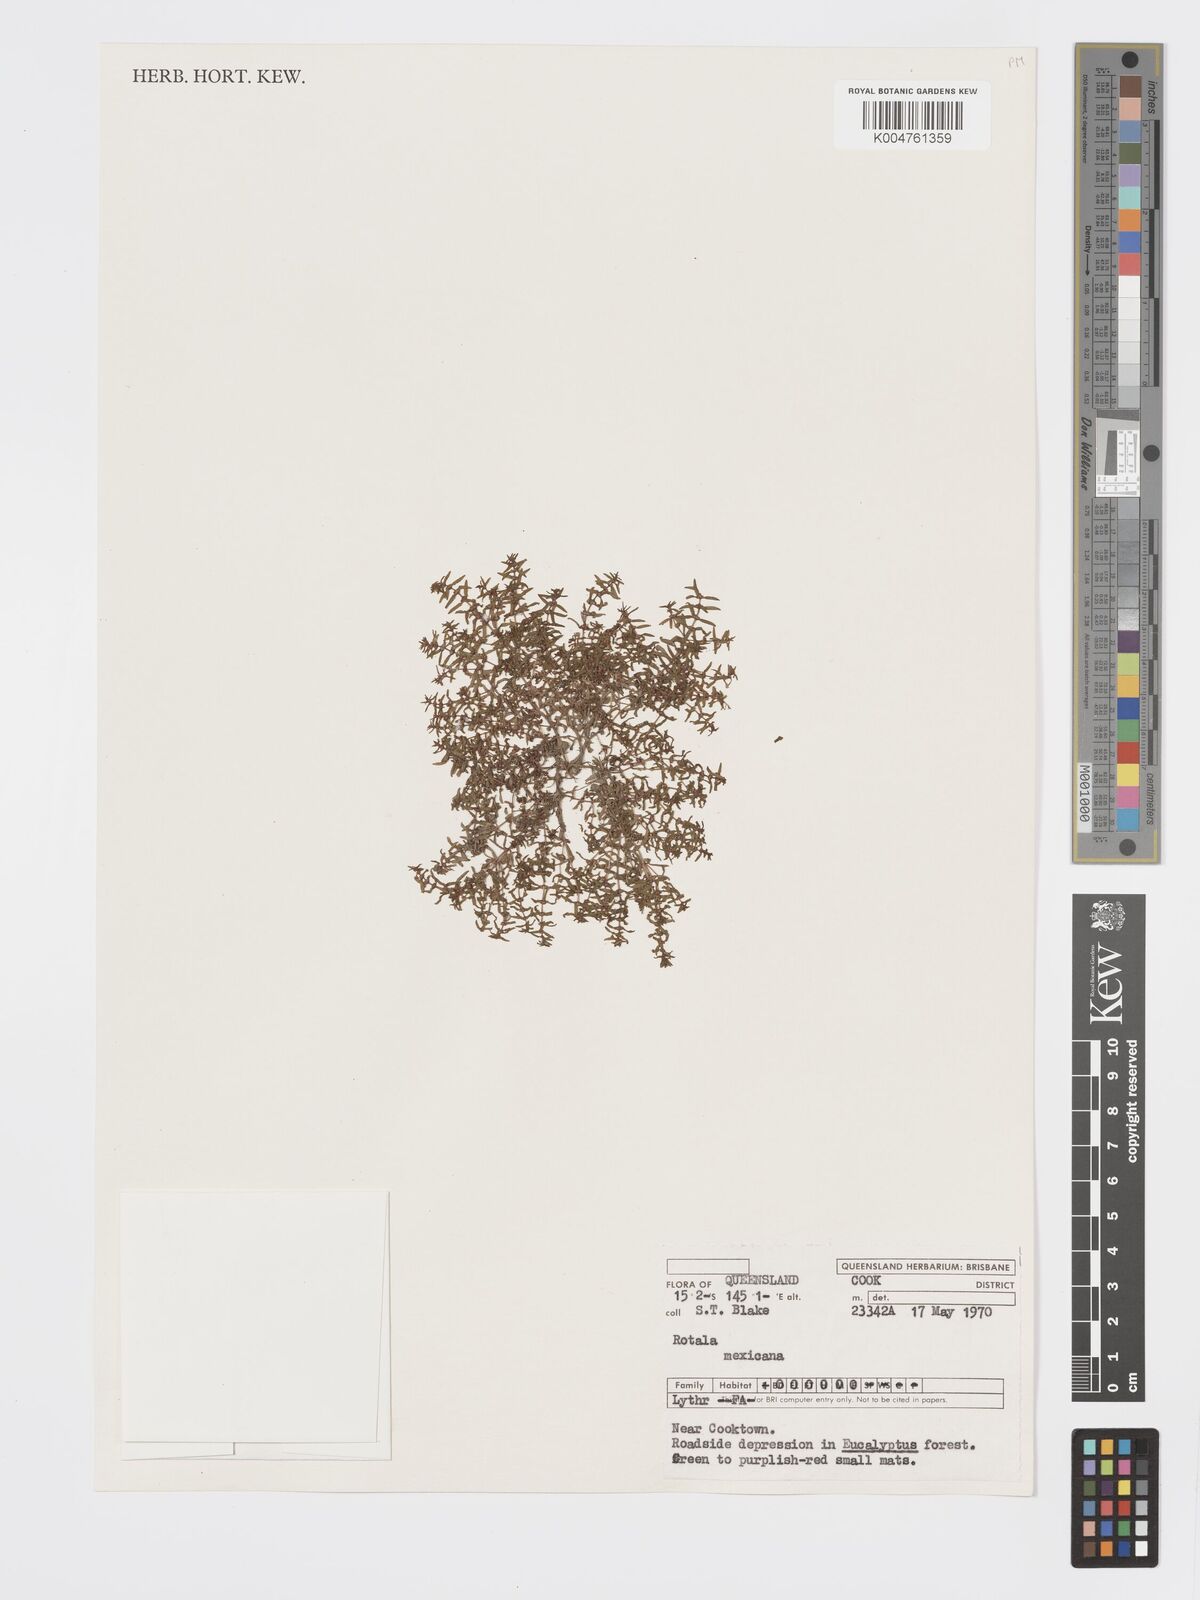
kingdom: Plantae
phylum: Tracheophyta
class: Magnoliopsida
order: Myrtales
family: Lythraceae
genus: Rotala
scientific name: Rotala mexicana
